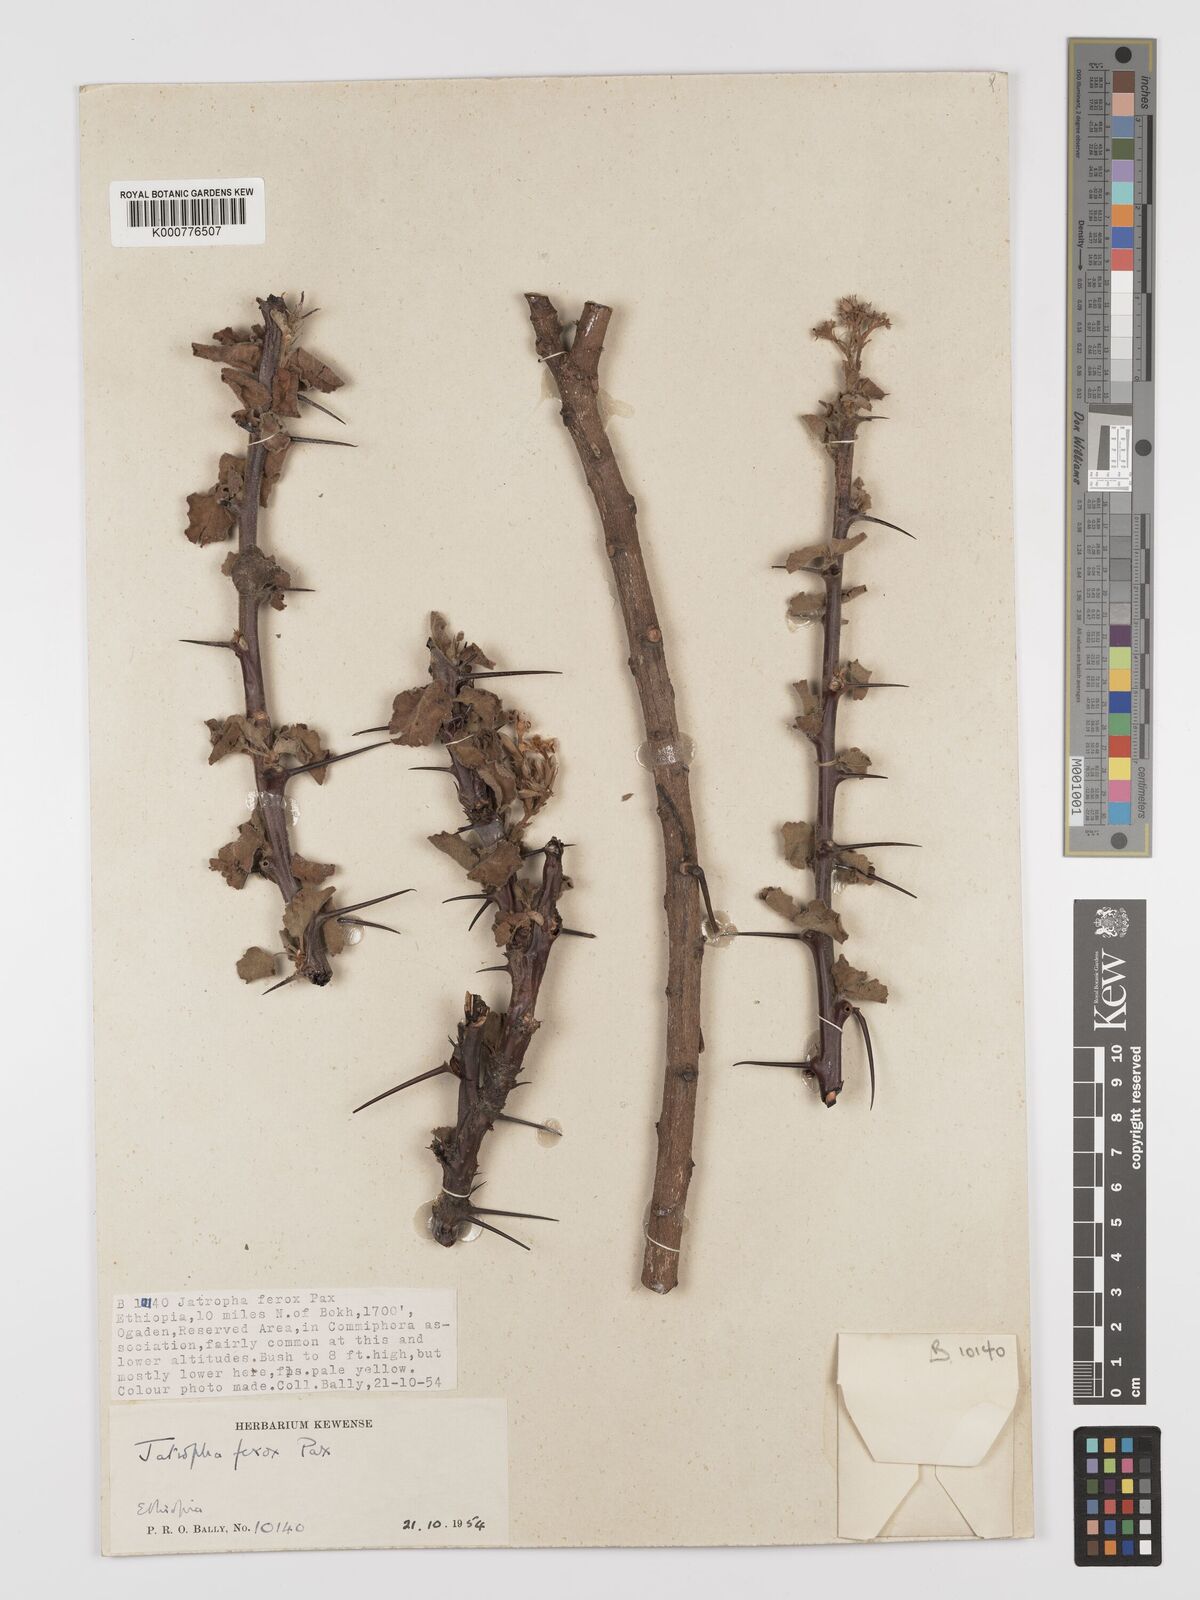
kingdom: Plantae
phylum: Tracheophyta
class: Magnoliopsida
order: Malpighiales
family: Euphorbiaceae
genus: Jatropha
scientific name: Jatropha dichtar
